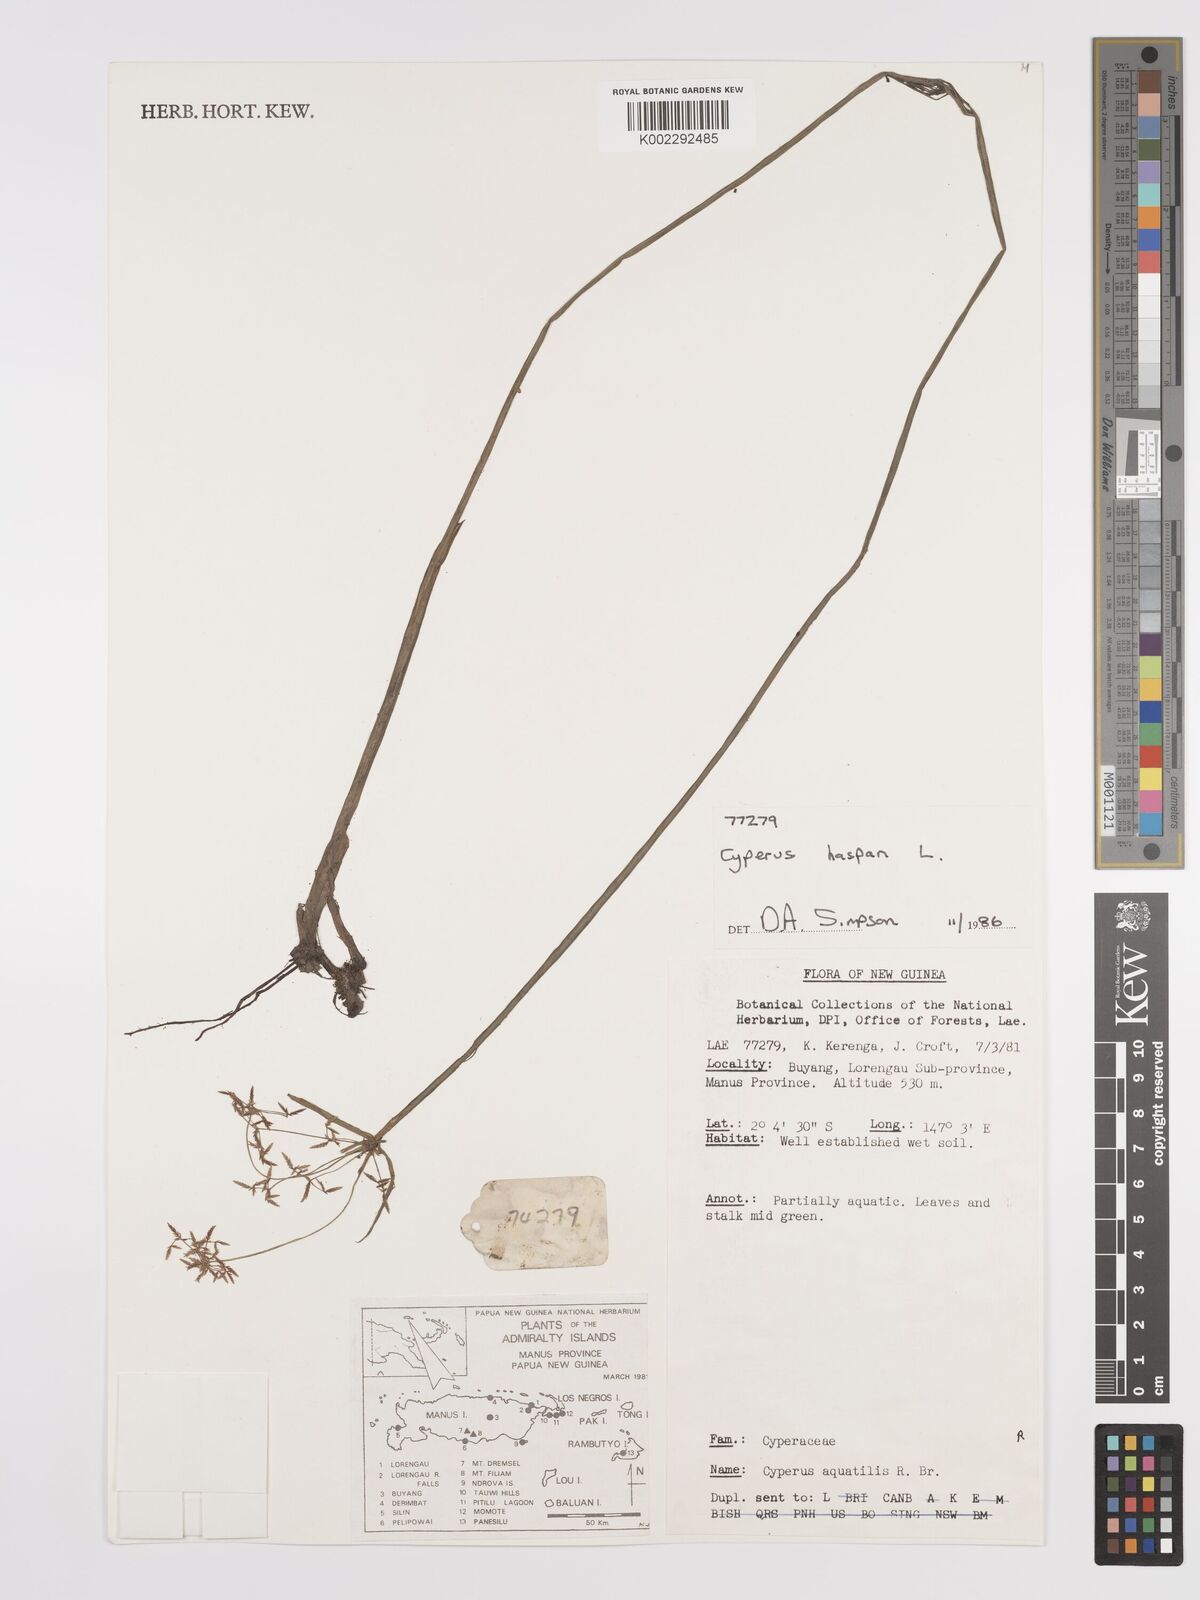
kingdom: Plantae
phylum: Tracheophyta
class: Liliopsida
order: Poales
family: Cyperaceae
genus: Cyperus
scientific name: Cyperus haspan
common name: Haspan flatsedge
